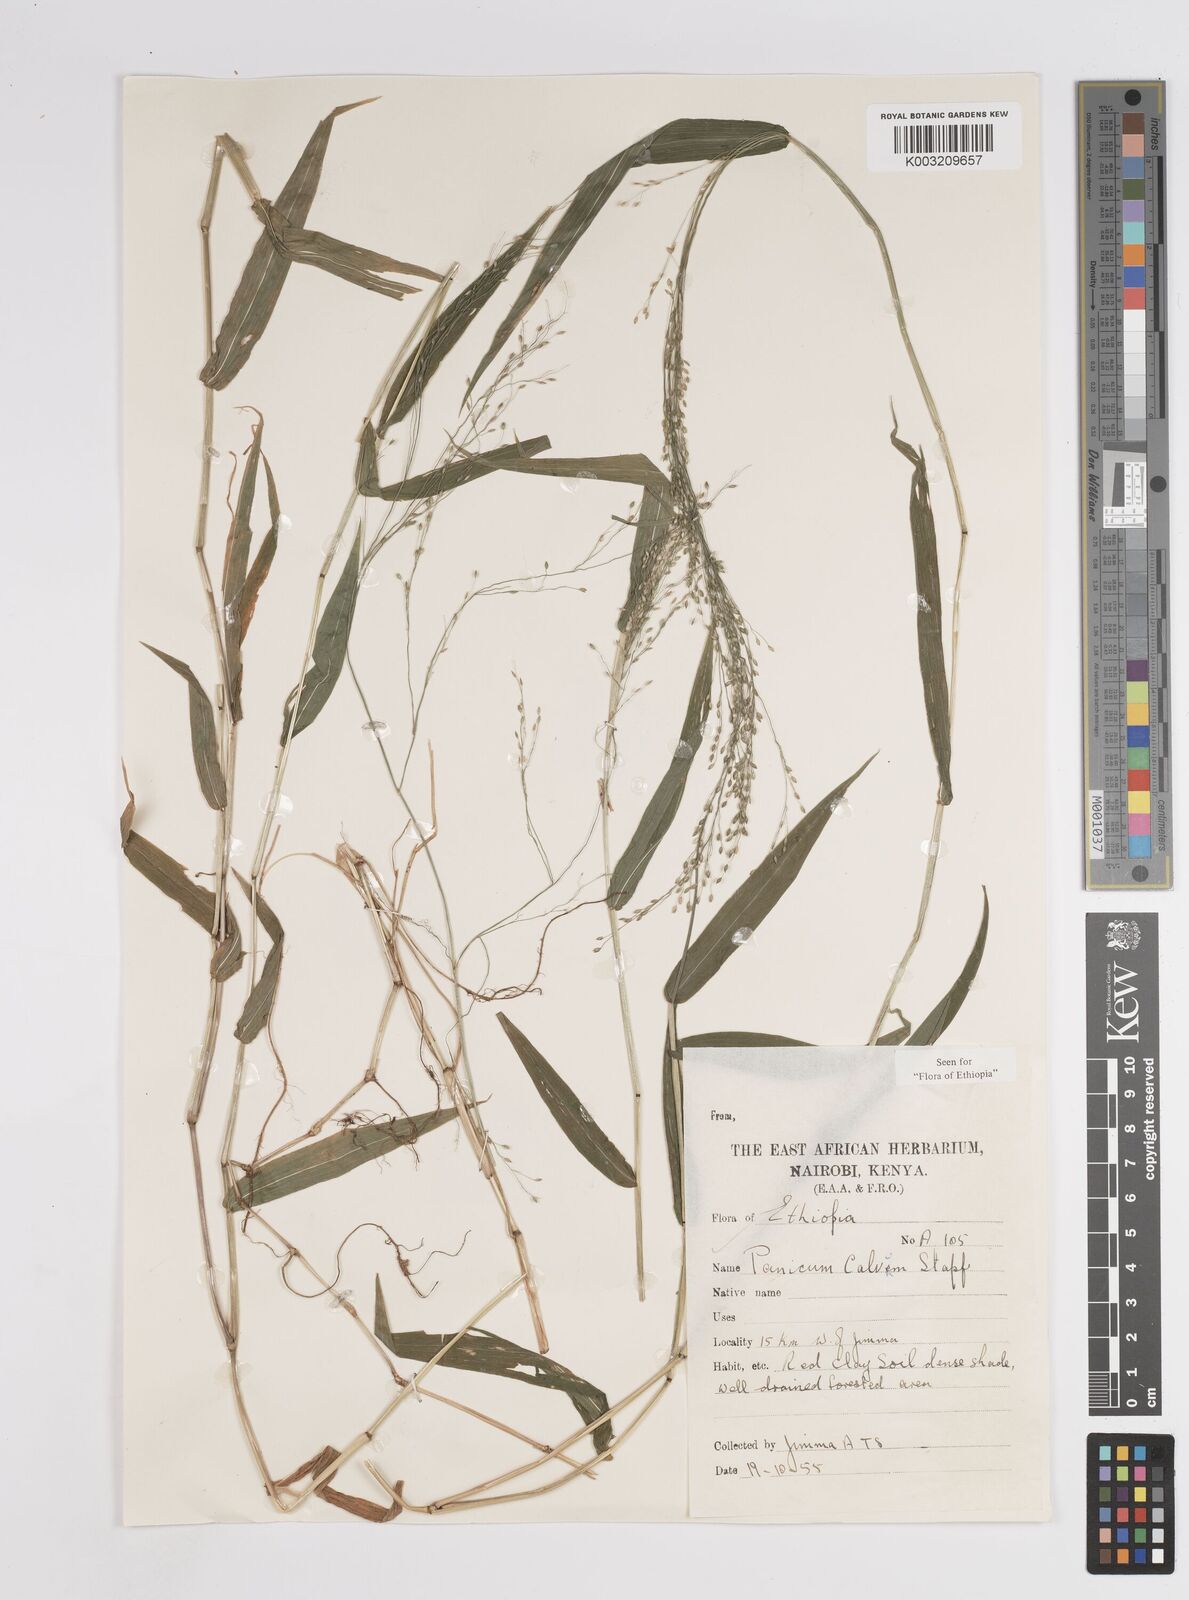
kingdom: Plantae
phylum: Tracheophyta
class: Liliopsida
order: Poales
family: Poaceae
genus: Panicum
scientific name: Panicum calvum
